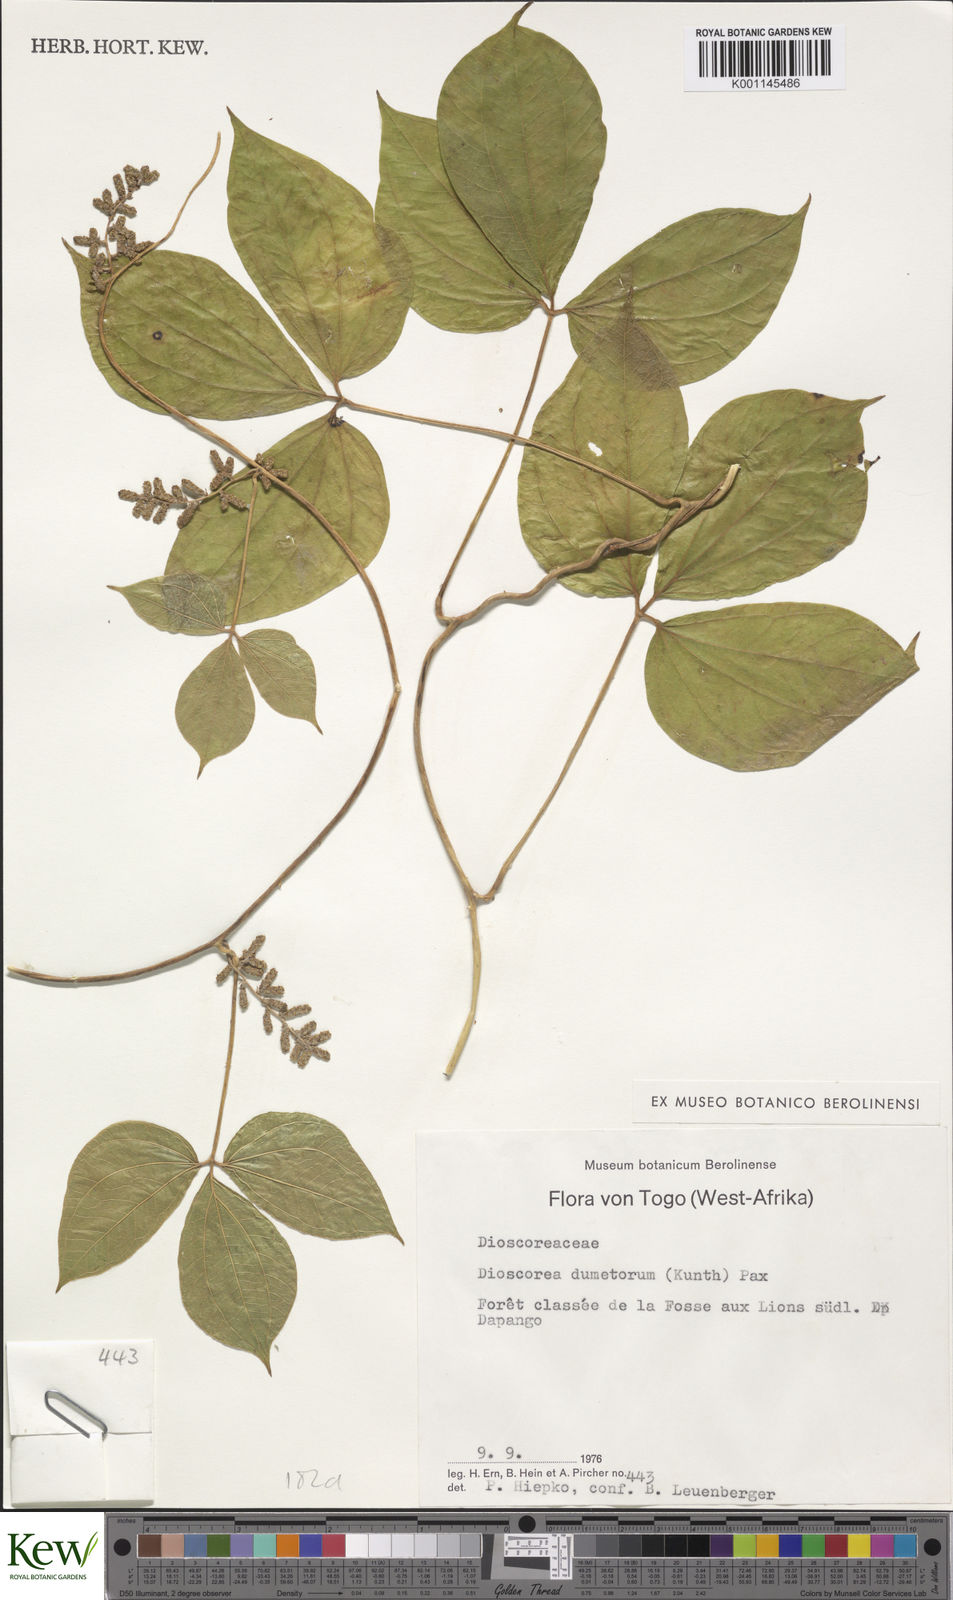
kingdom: Plantae
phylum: Tracheophyta
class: Liliopsida
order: Dioscoreales
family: Dioscoreaceae
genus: Dioscorea
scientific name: Dioscorea dumetorum
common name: African bitter yam
